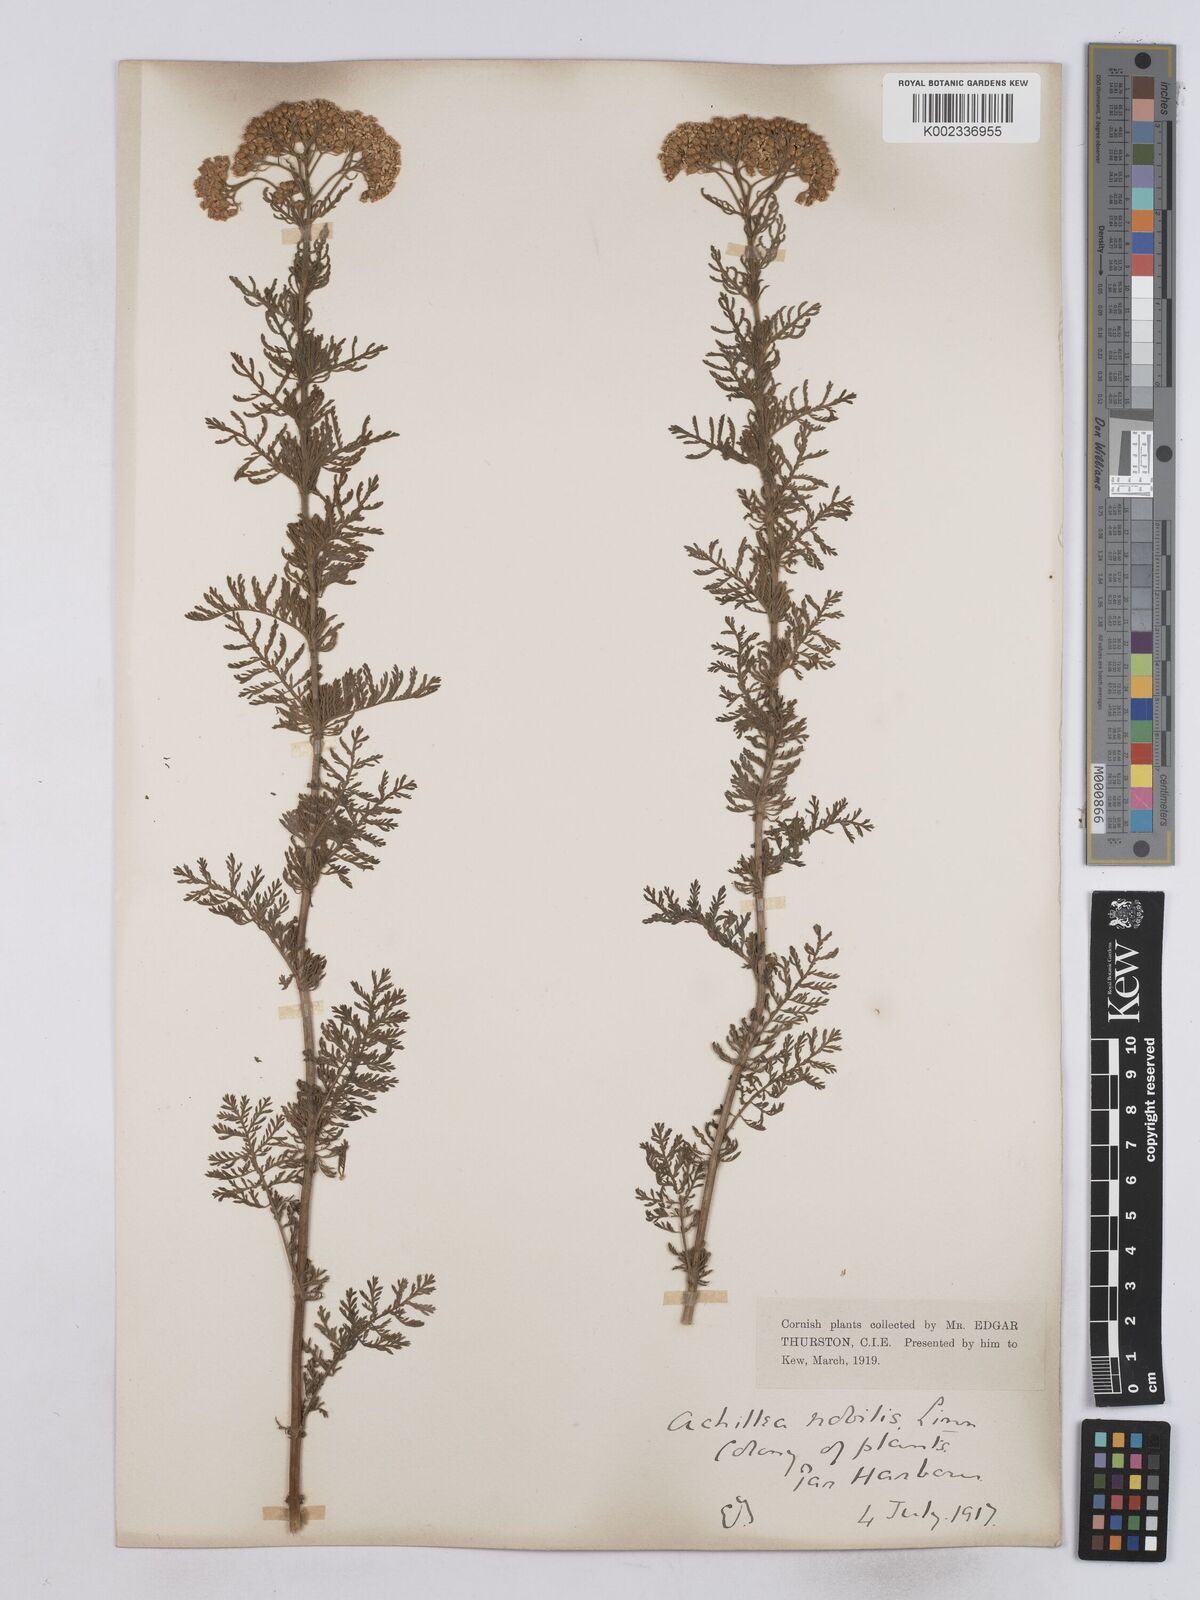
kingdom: Plantae
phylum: Tracheophyta
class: Magnoliopsida
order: Asterales
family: Asteraceae
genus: Achillea
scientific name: Achillea nobilis
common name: Noble yarrow
